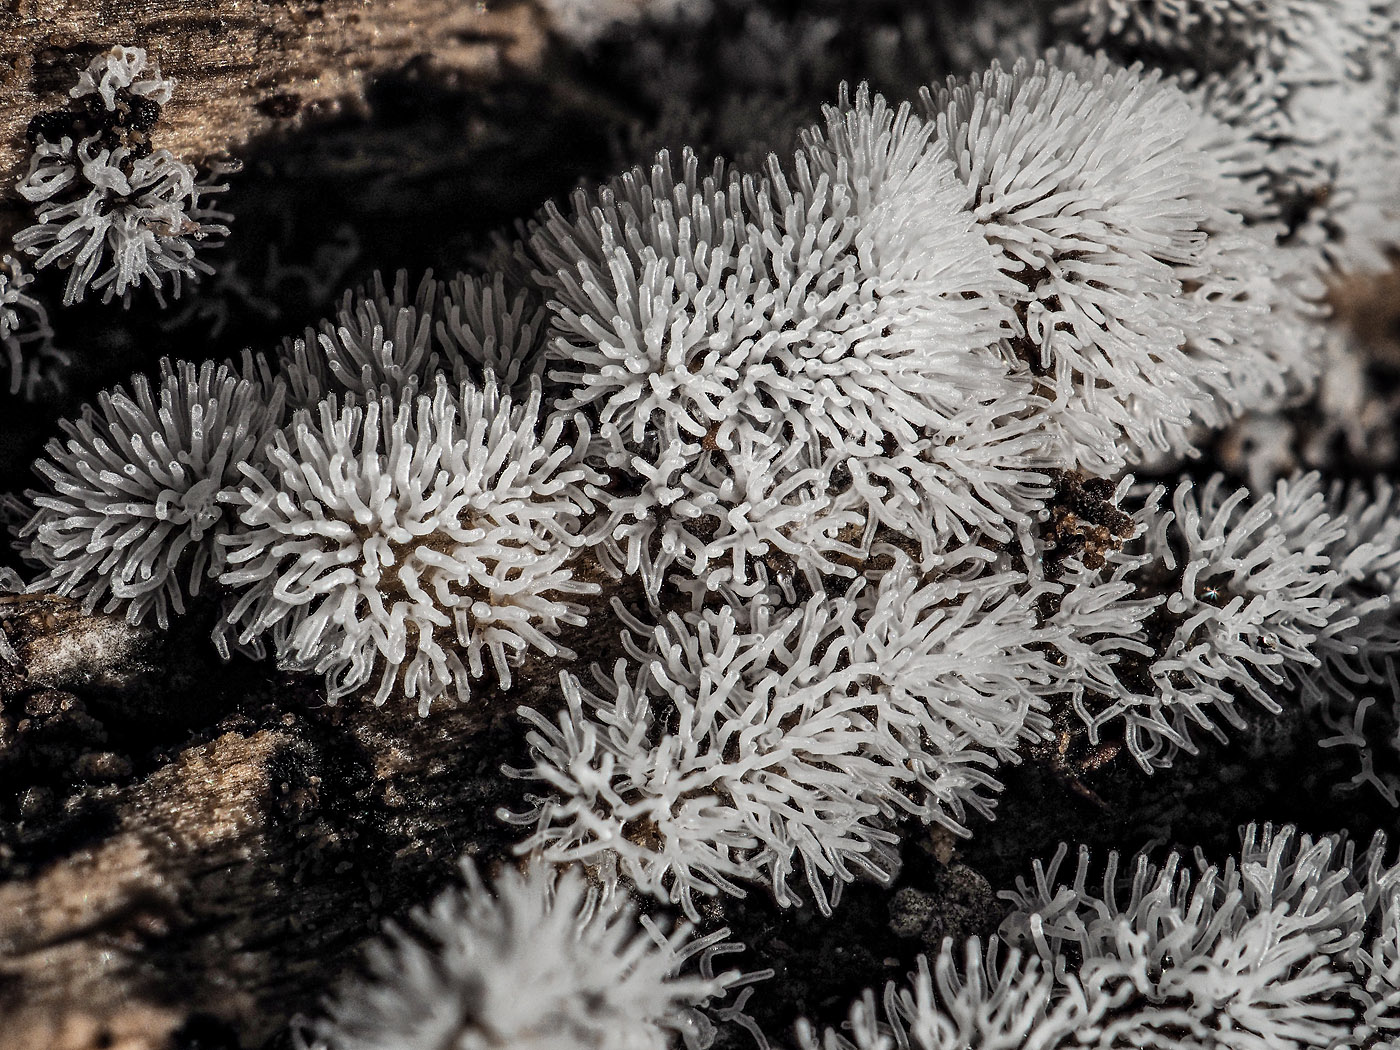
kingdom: Protozoa
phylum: Mycetozoa
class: Protosteliomycetes
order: Ceratiomyxales
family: Ceratiomyxaceae
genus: Ceratiomyxa
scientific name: Ceratiomyxa fruticulosa
